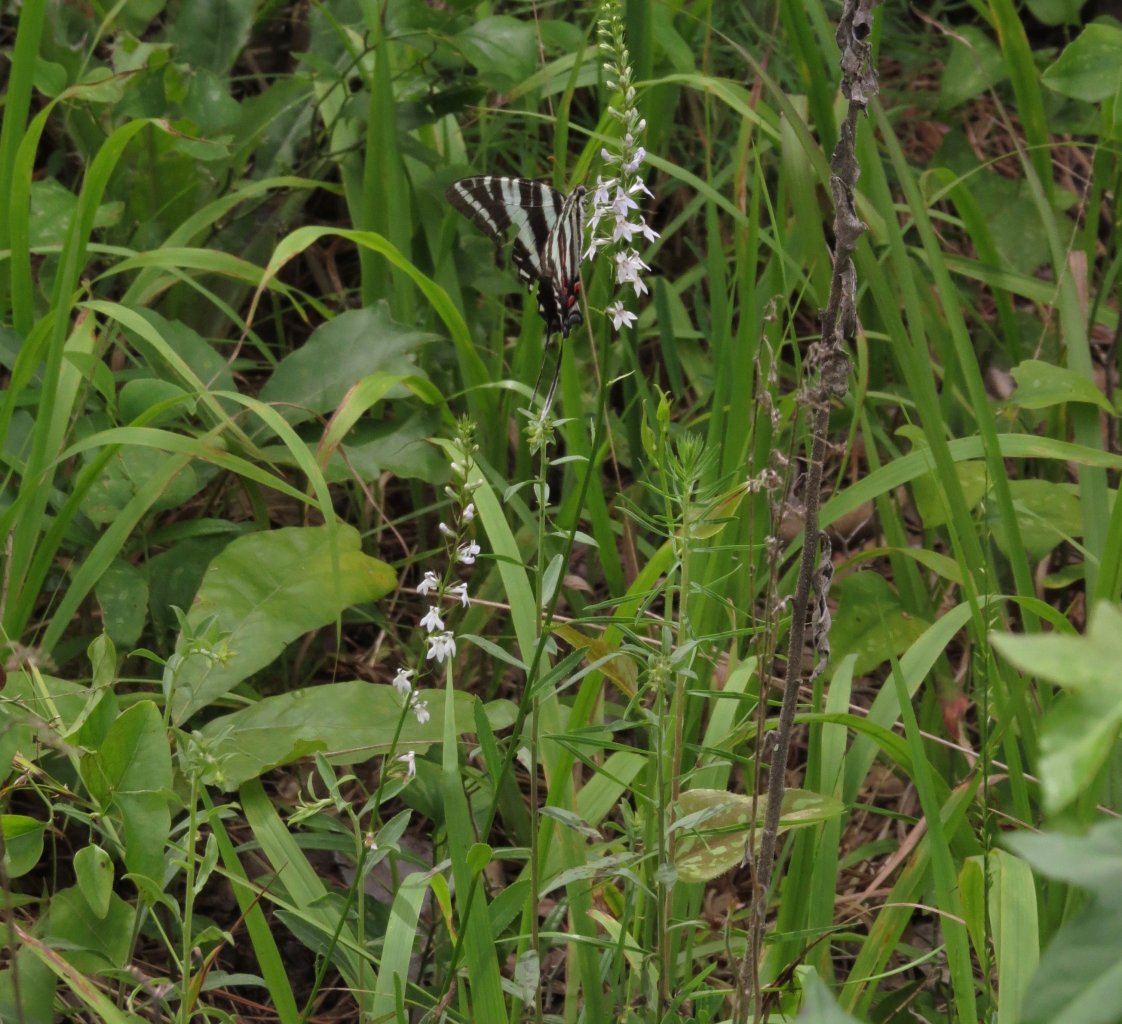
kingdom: Animalia
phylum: Arthropoda
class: Insecta
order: Lepidoptera
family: Papilionidae
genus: Protographium
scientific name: Protographium marcellus
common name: Zebra Swallowtail
